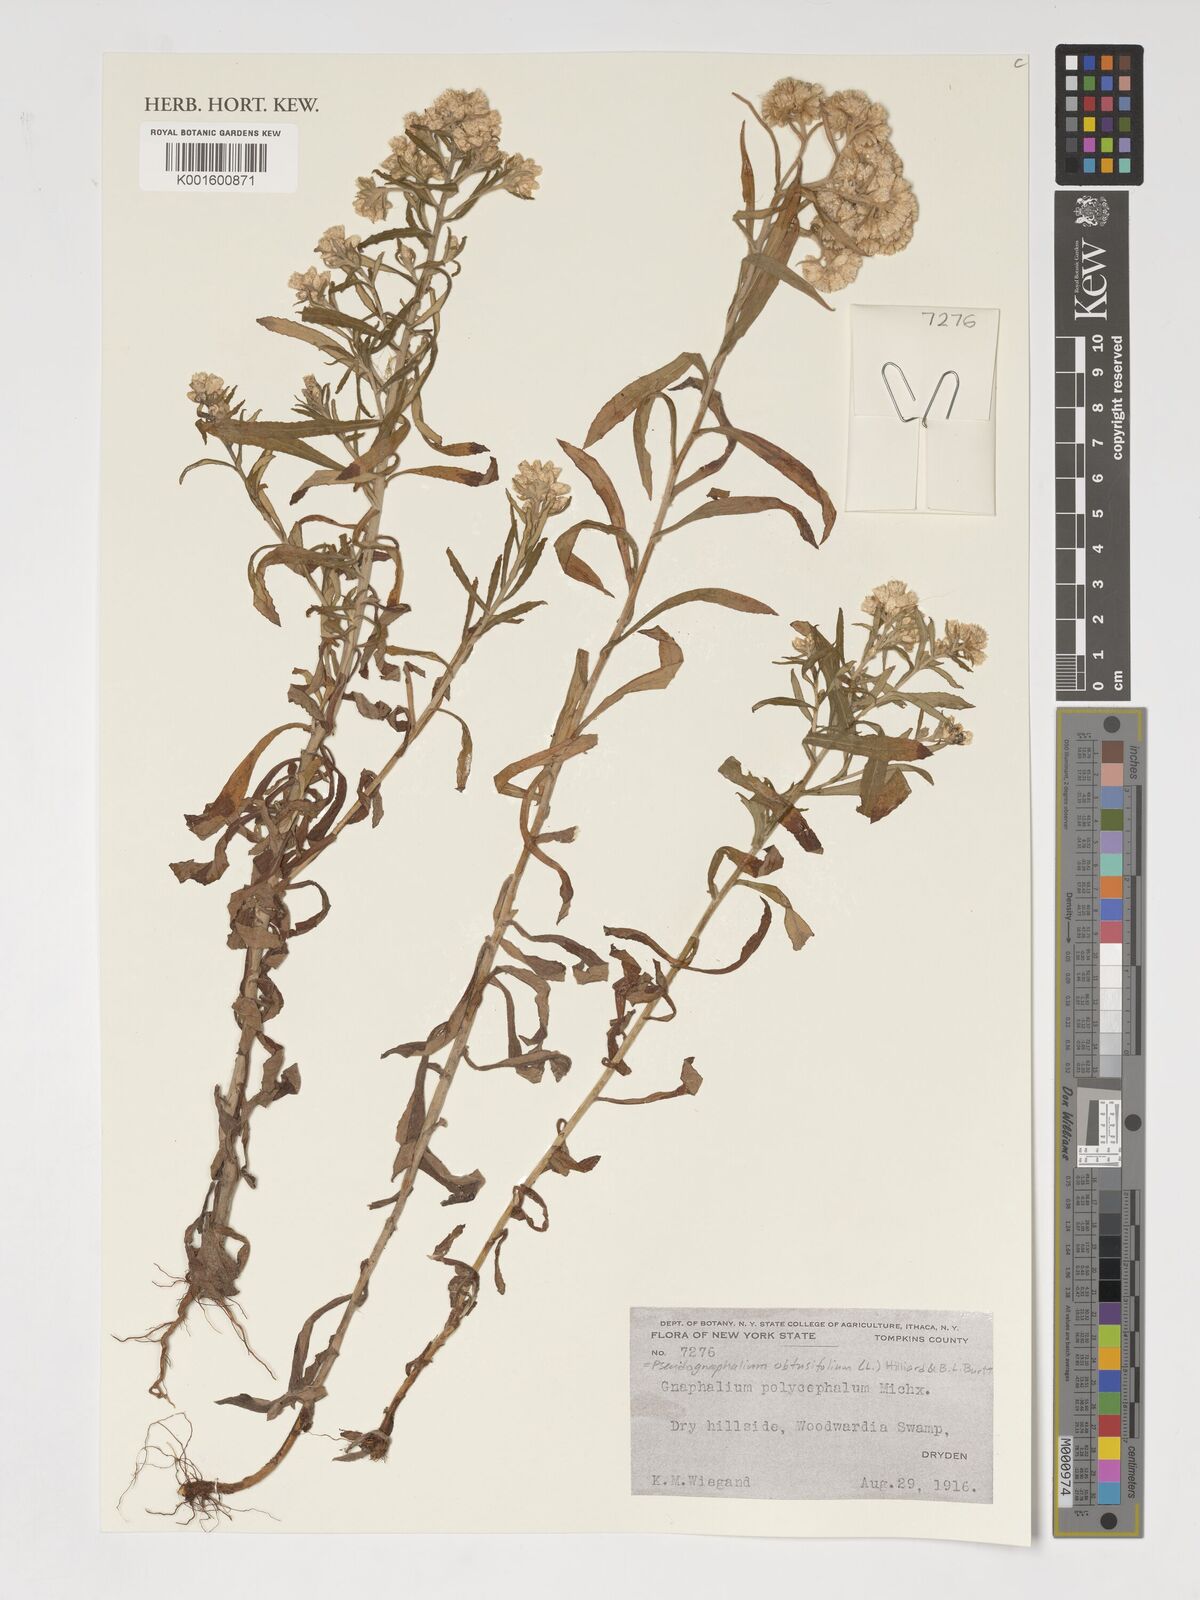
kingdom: Plantae
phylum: Tracheophyta
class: Magnoliopsida
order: Asterales
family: Asteraceae
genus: Pseudognaphalium
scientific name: Pseudognaphalium obtusifolium
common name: Eastern rabbit-tobacco
